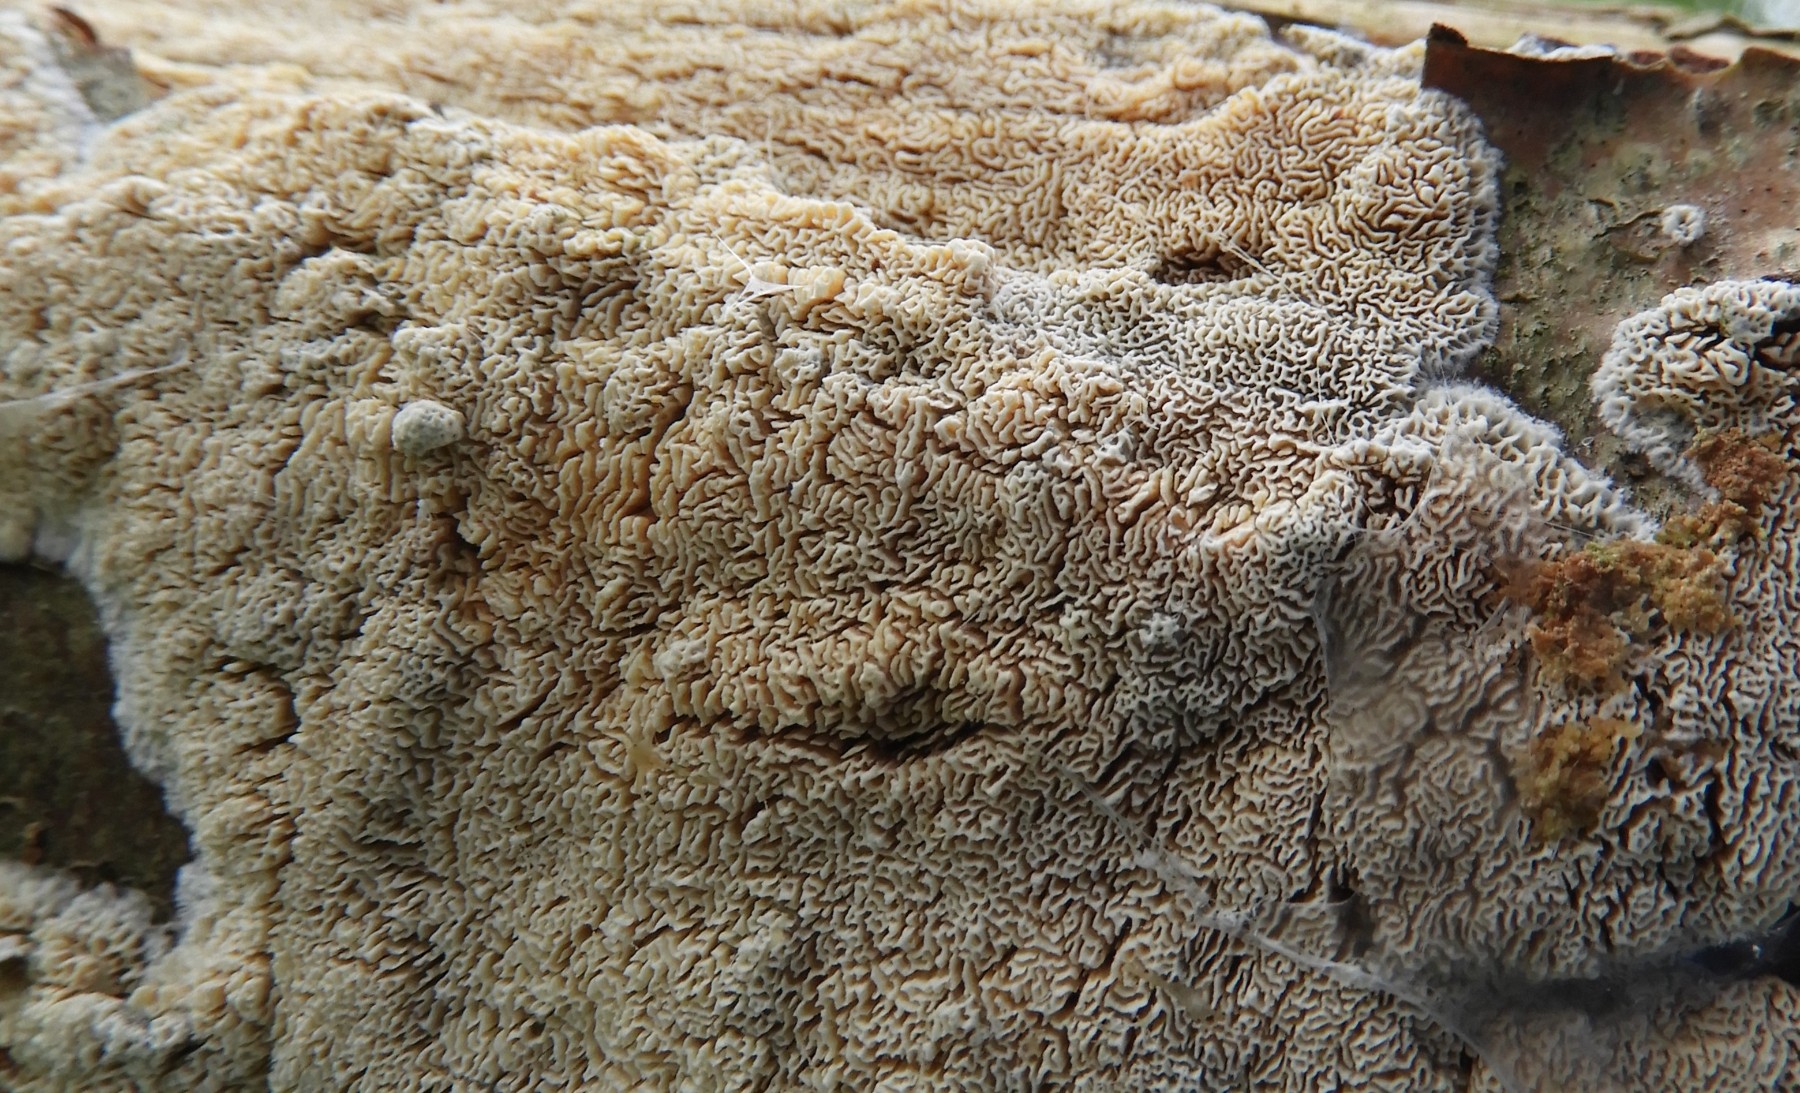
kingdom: Fungi
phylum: Basidiomycota
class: Agaricomycetes
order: Hymenochaetales
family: Schizoporaceae
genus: Xylodon
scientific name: Xylodon subtropicus
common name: labyrint-tandsvamp
